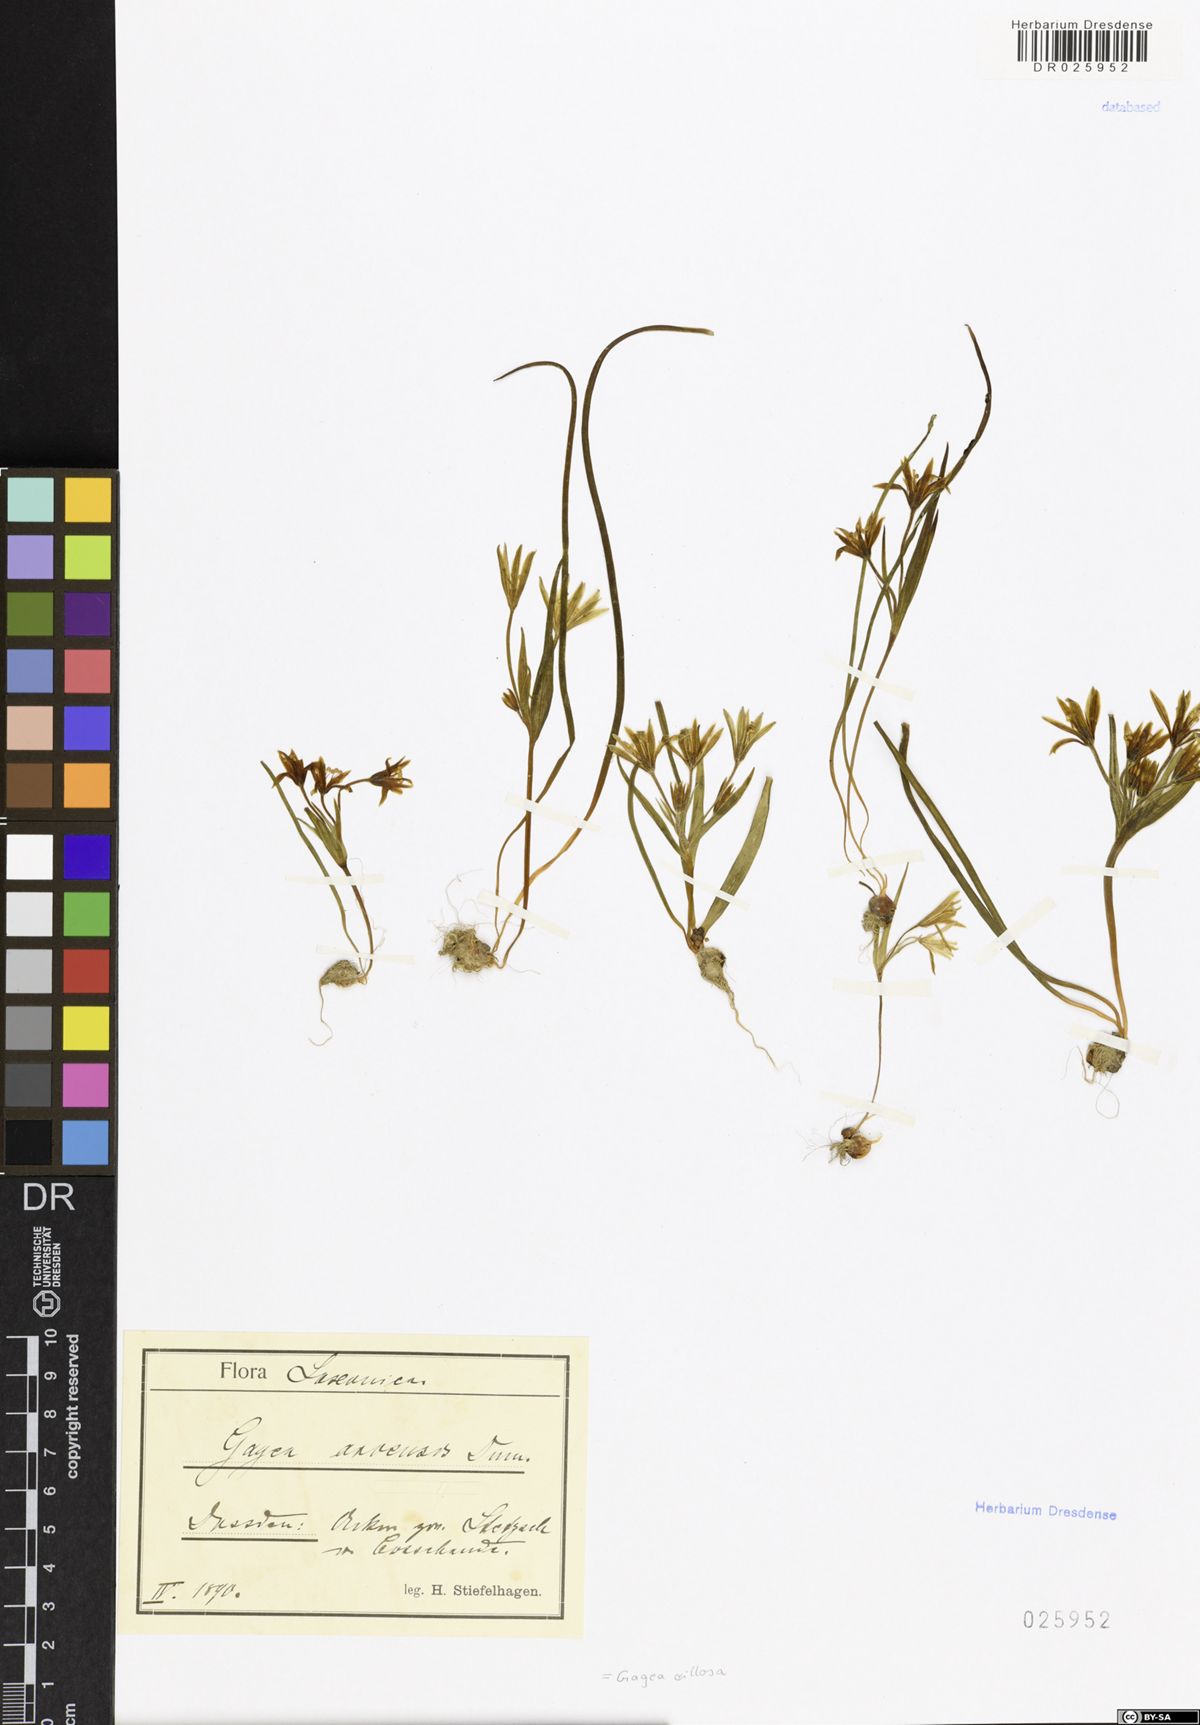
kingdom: Plantae
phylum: Tracheophyta
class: Liliopsida
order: Liliales
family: Liliaceae
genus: Gagea
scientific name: Gagea villosa
